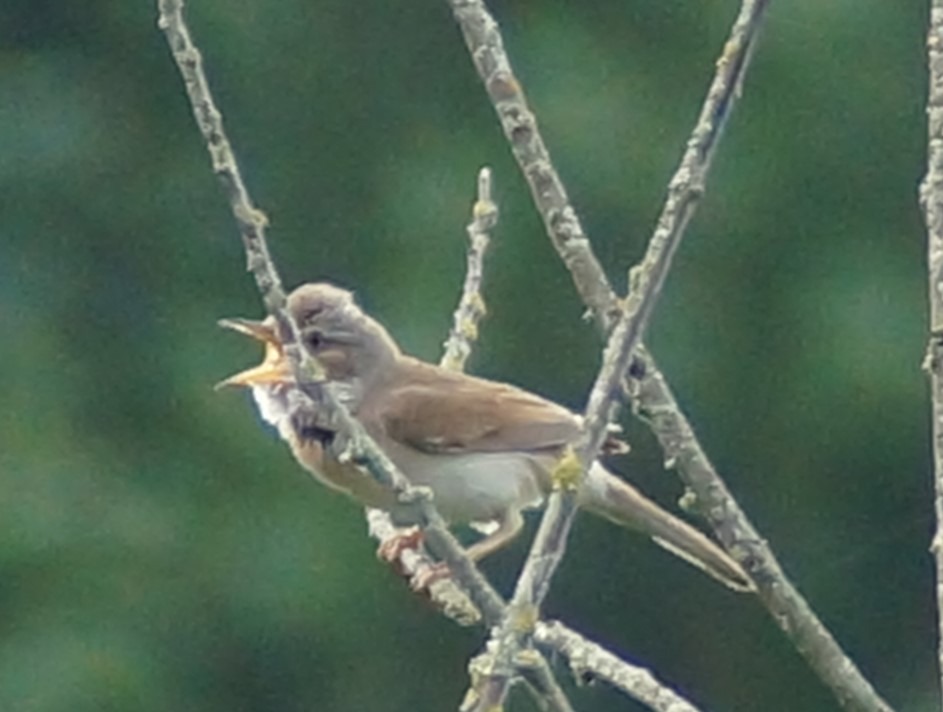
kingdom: Animalia
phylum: Chordata
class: Aves
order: Passeriformes
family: Sylviidae
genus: Sylvia
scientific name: Sylvia communis
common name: Tornsanger
